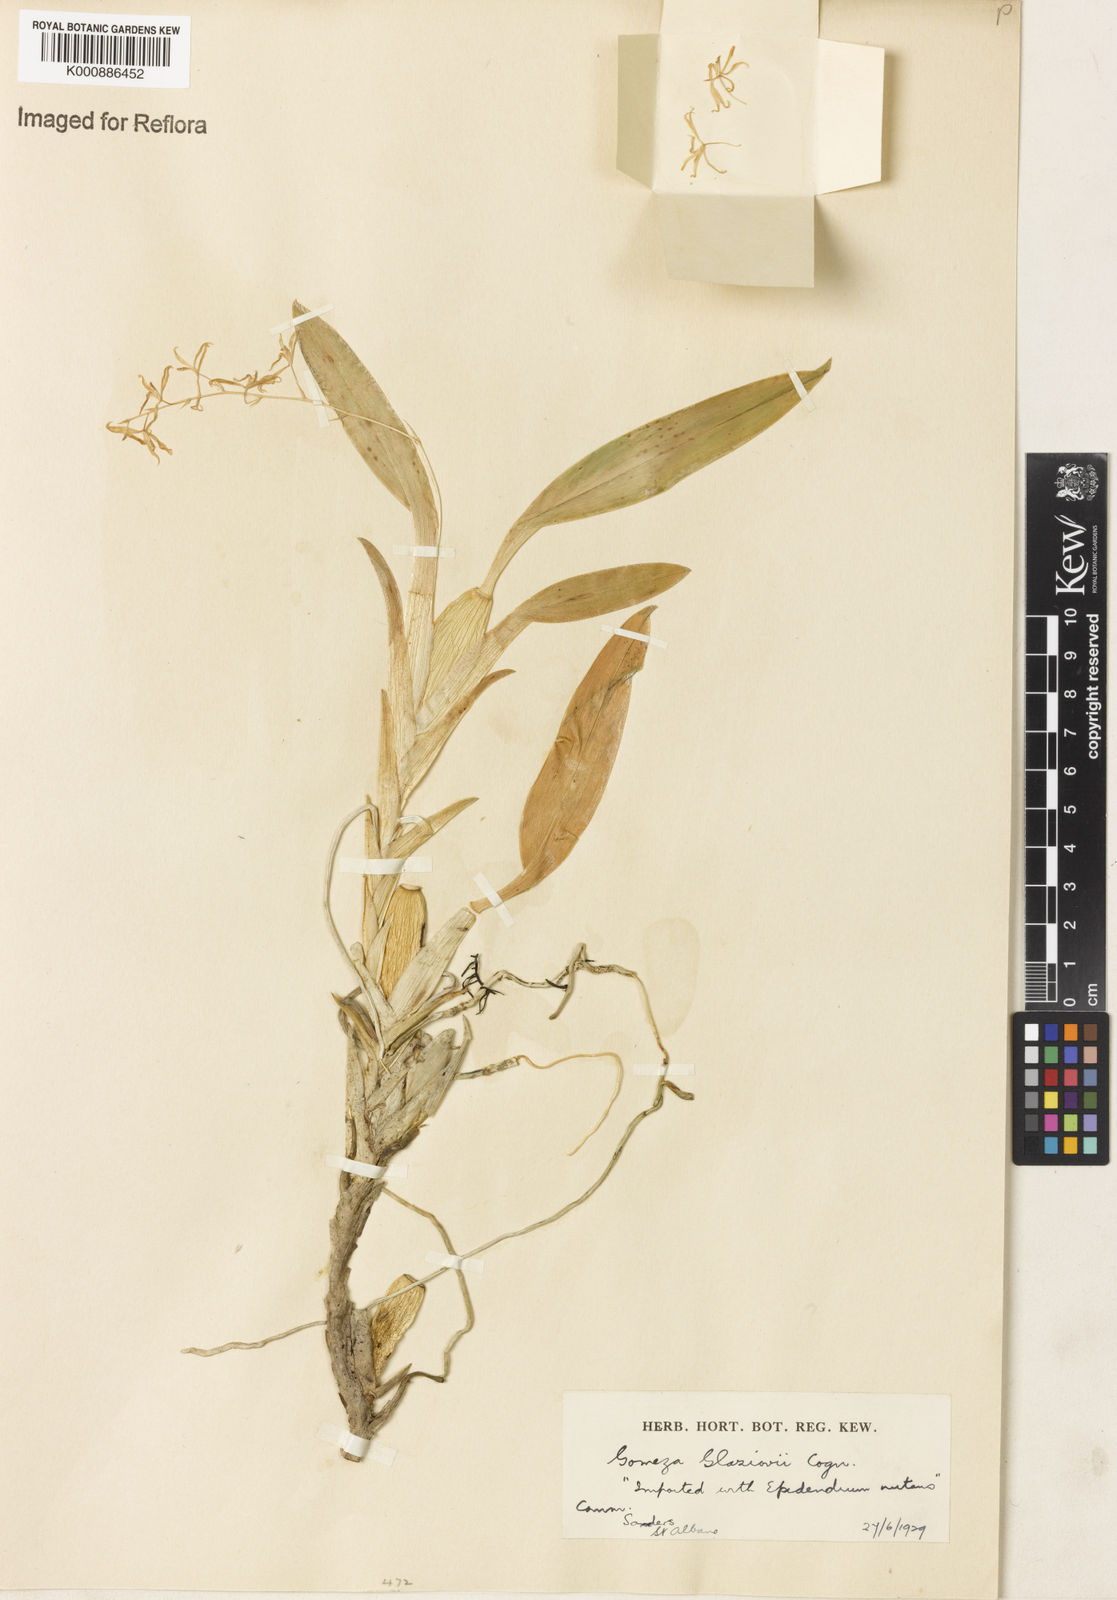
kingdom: Plantae
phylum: Tracheophyta
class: Liliopsida
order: Asparagales
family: Orchidaceae
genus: Gomesa
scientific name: Gomesa glaziovii
